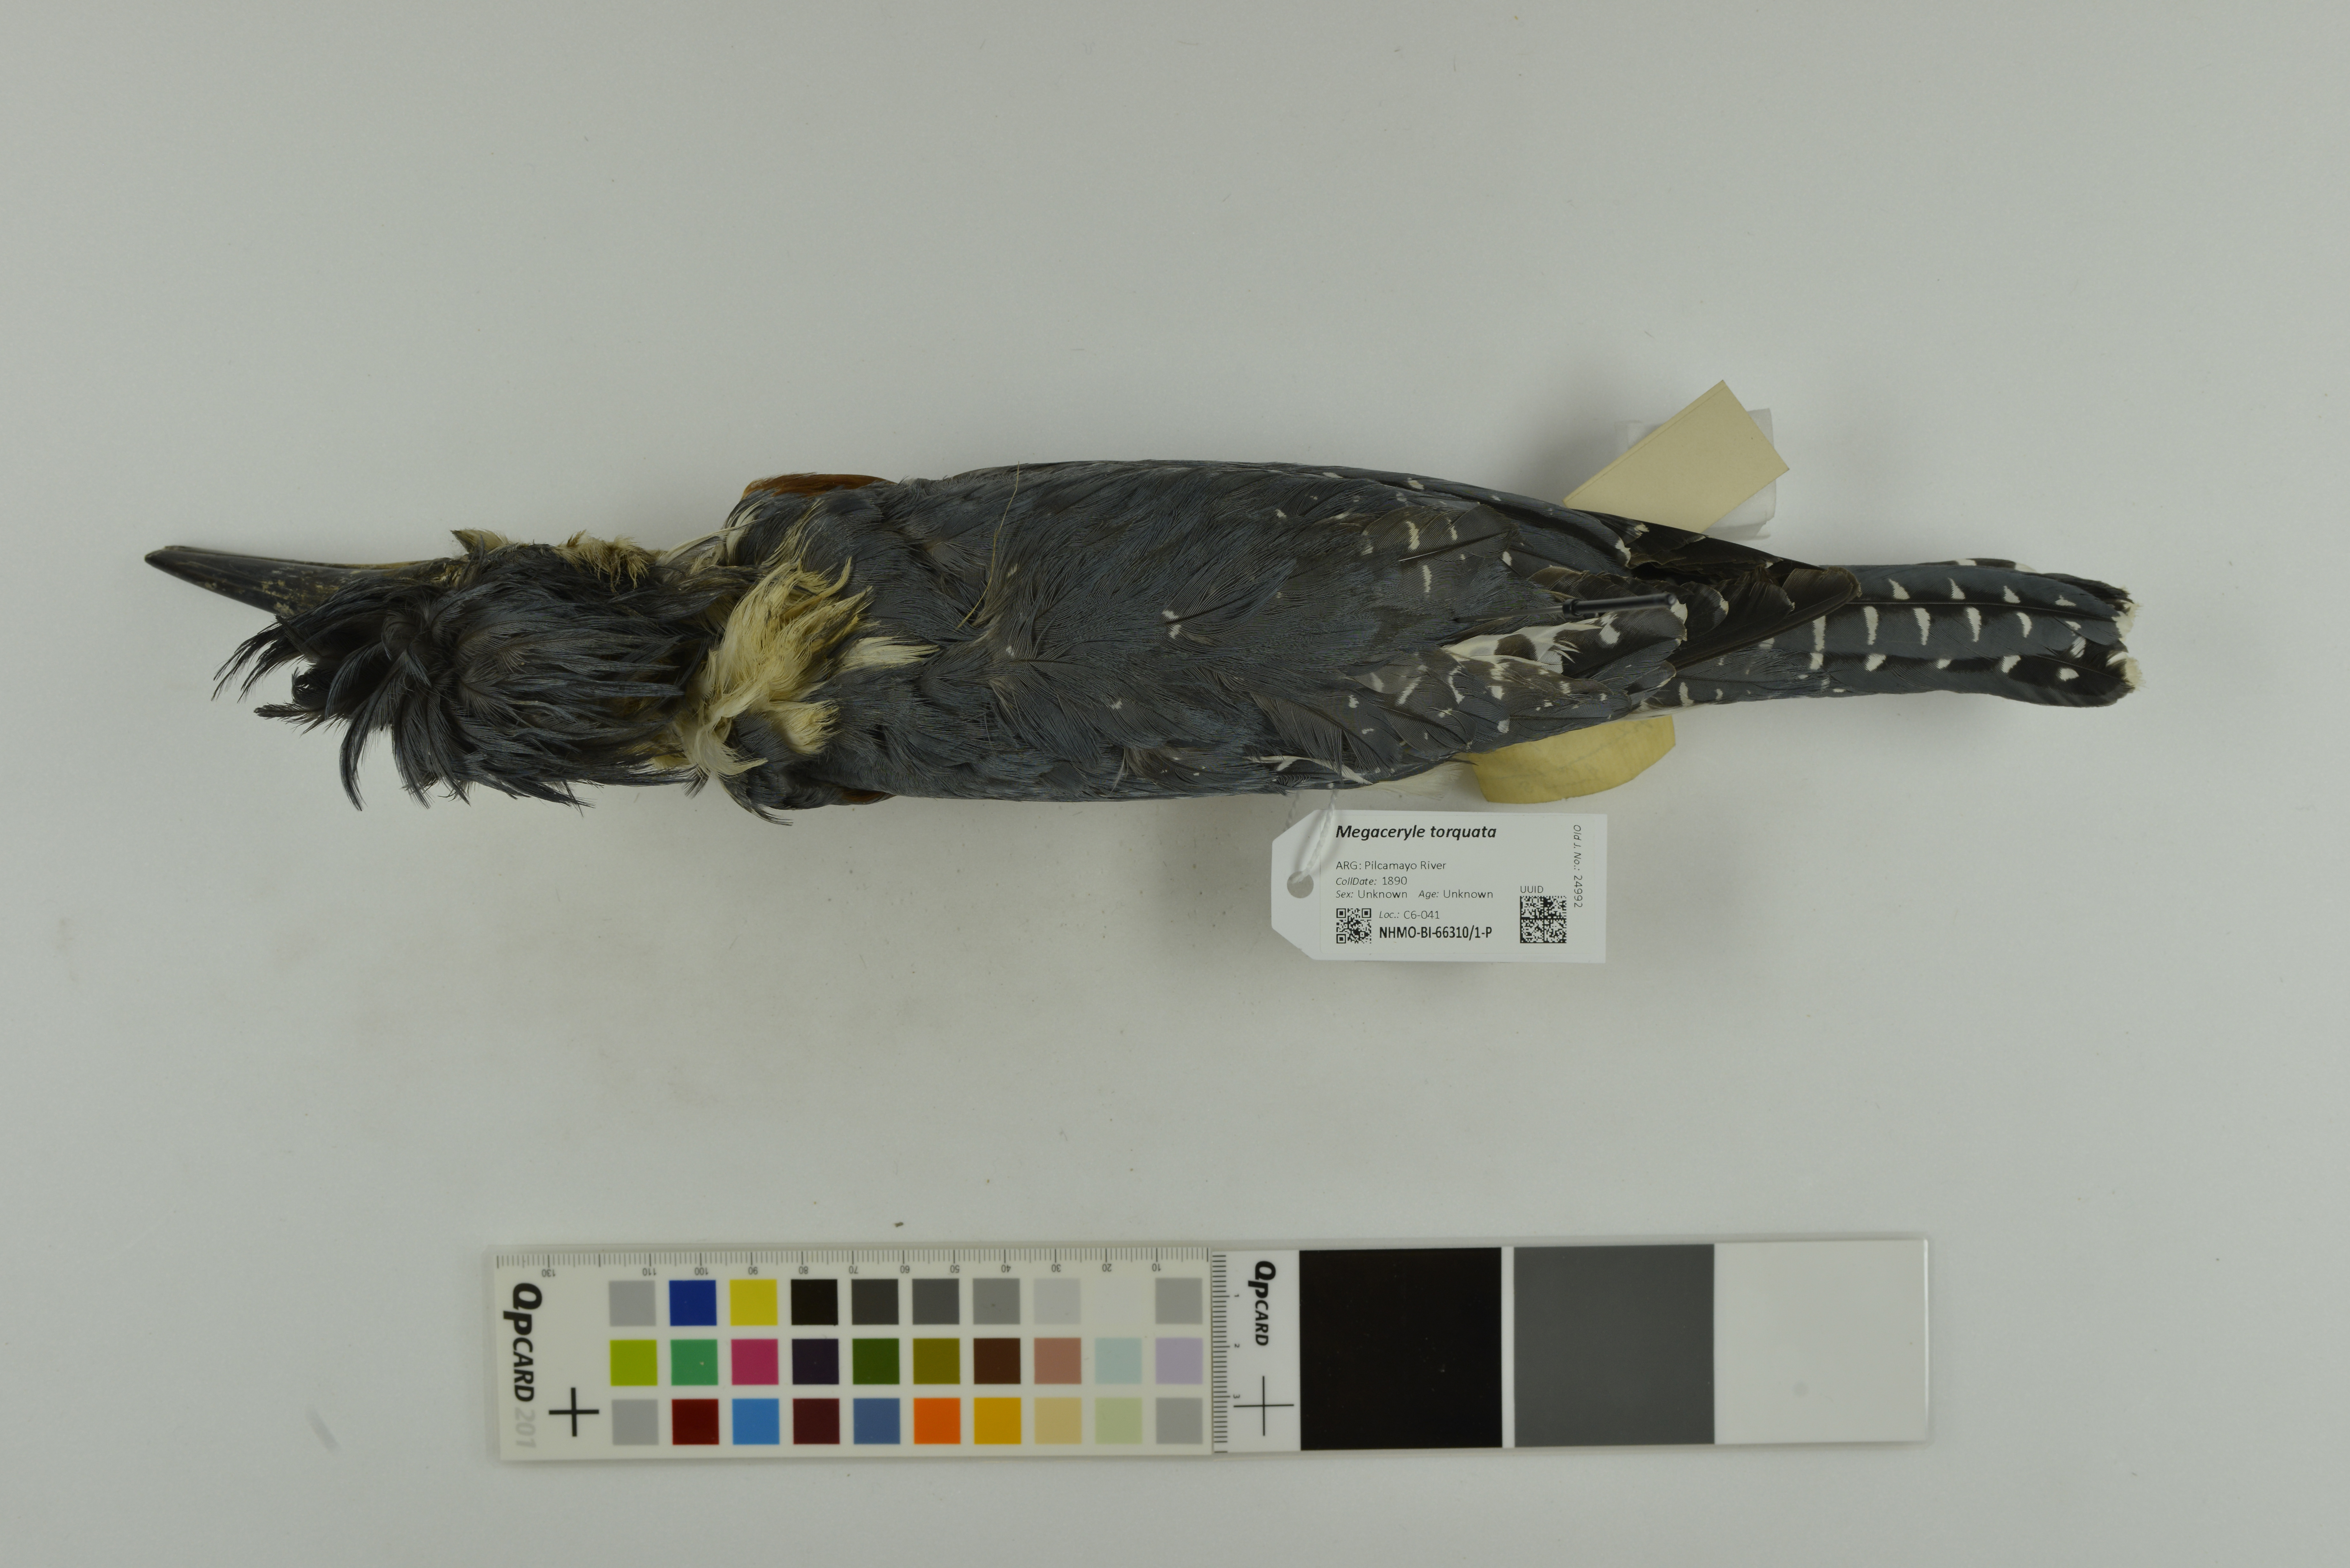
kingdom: Animalia
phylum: Chordata
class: Aves
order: Coraciiformes
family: Alcedinidae
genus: Megaceryle
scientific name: Megaceryle torquata
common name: Ringed kingfisher
